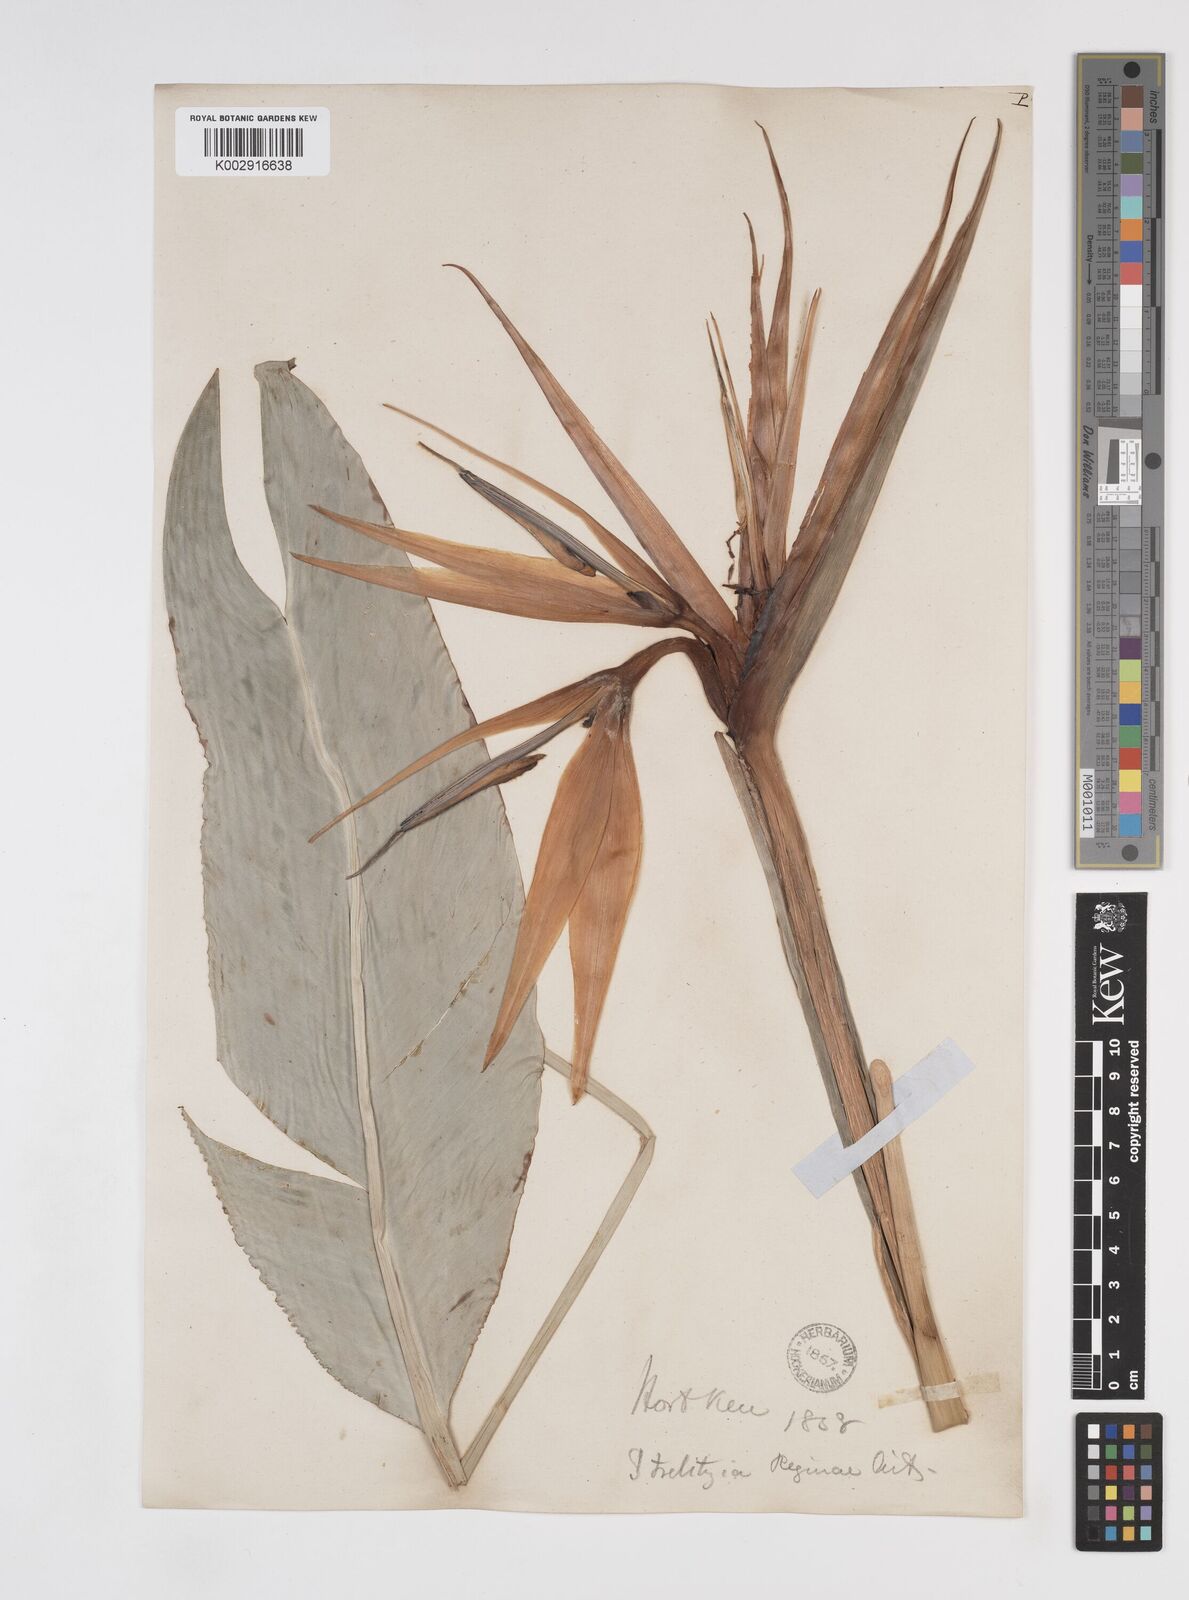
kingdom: Plantae
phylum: Tracheophyta
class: Liliopsida
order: Zingiberales
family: Strelitziaceae
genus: Strelitzia
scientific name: Strelitzia reginae
